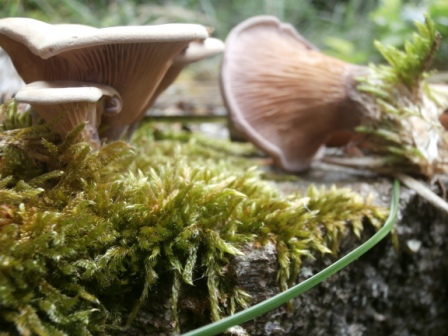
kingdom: Fungi
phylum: Basidiomycota
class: Agaricomycetes
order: Polyporales
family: Panaceae
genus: Panus
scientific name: Panus conchatus
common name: filtstokket læderhat
